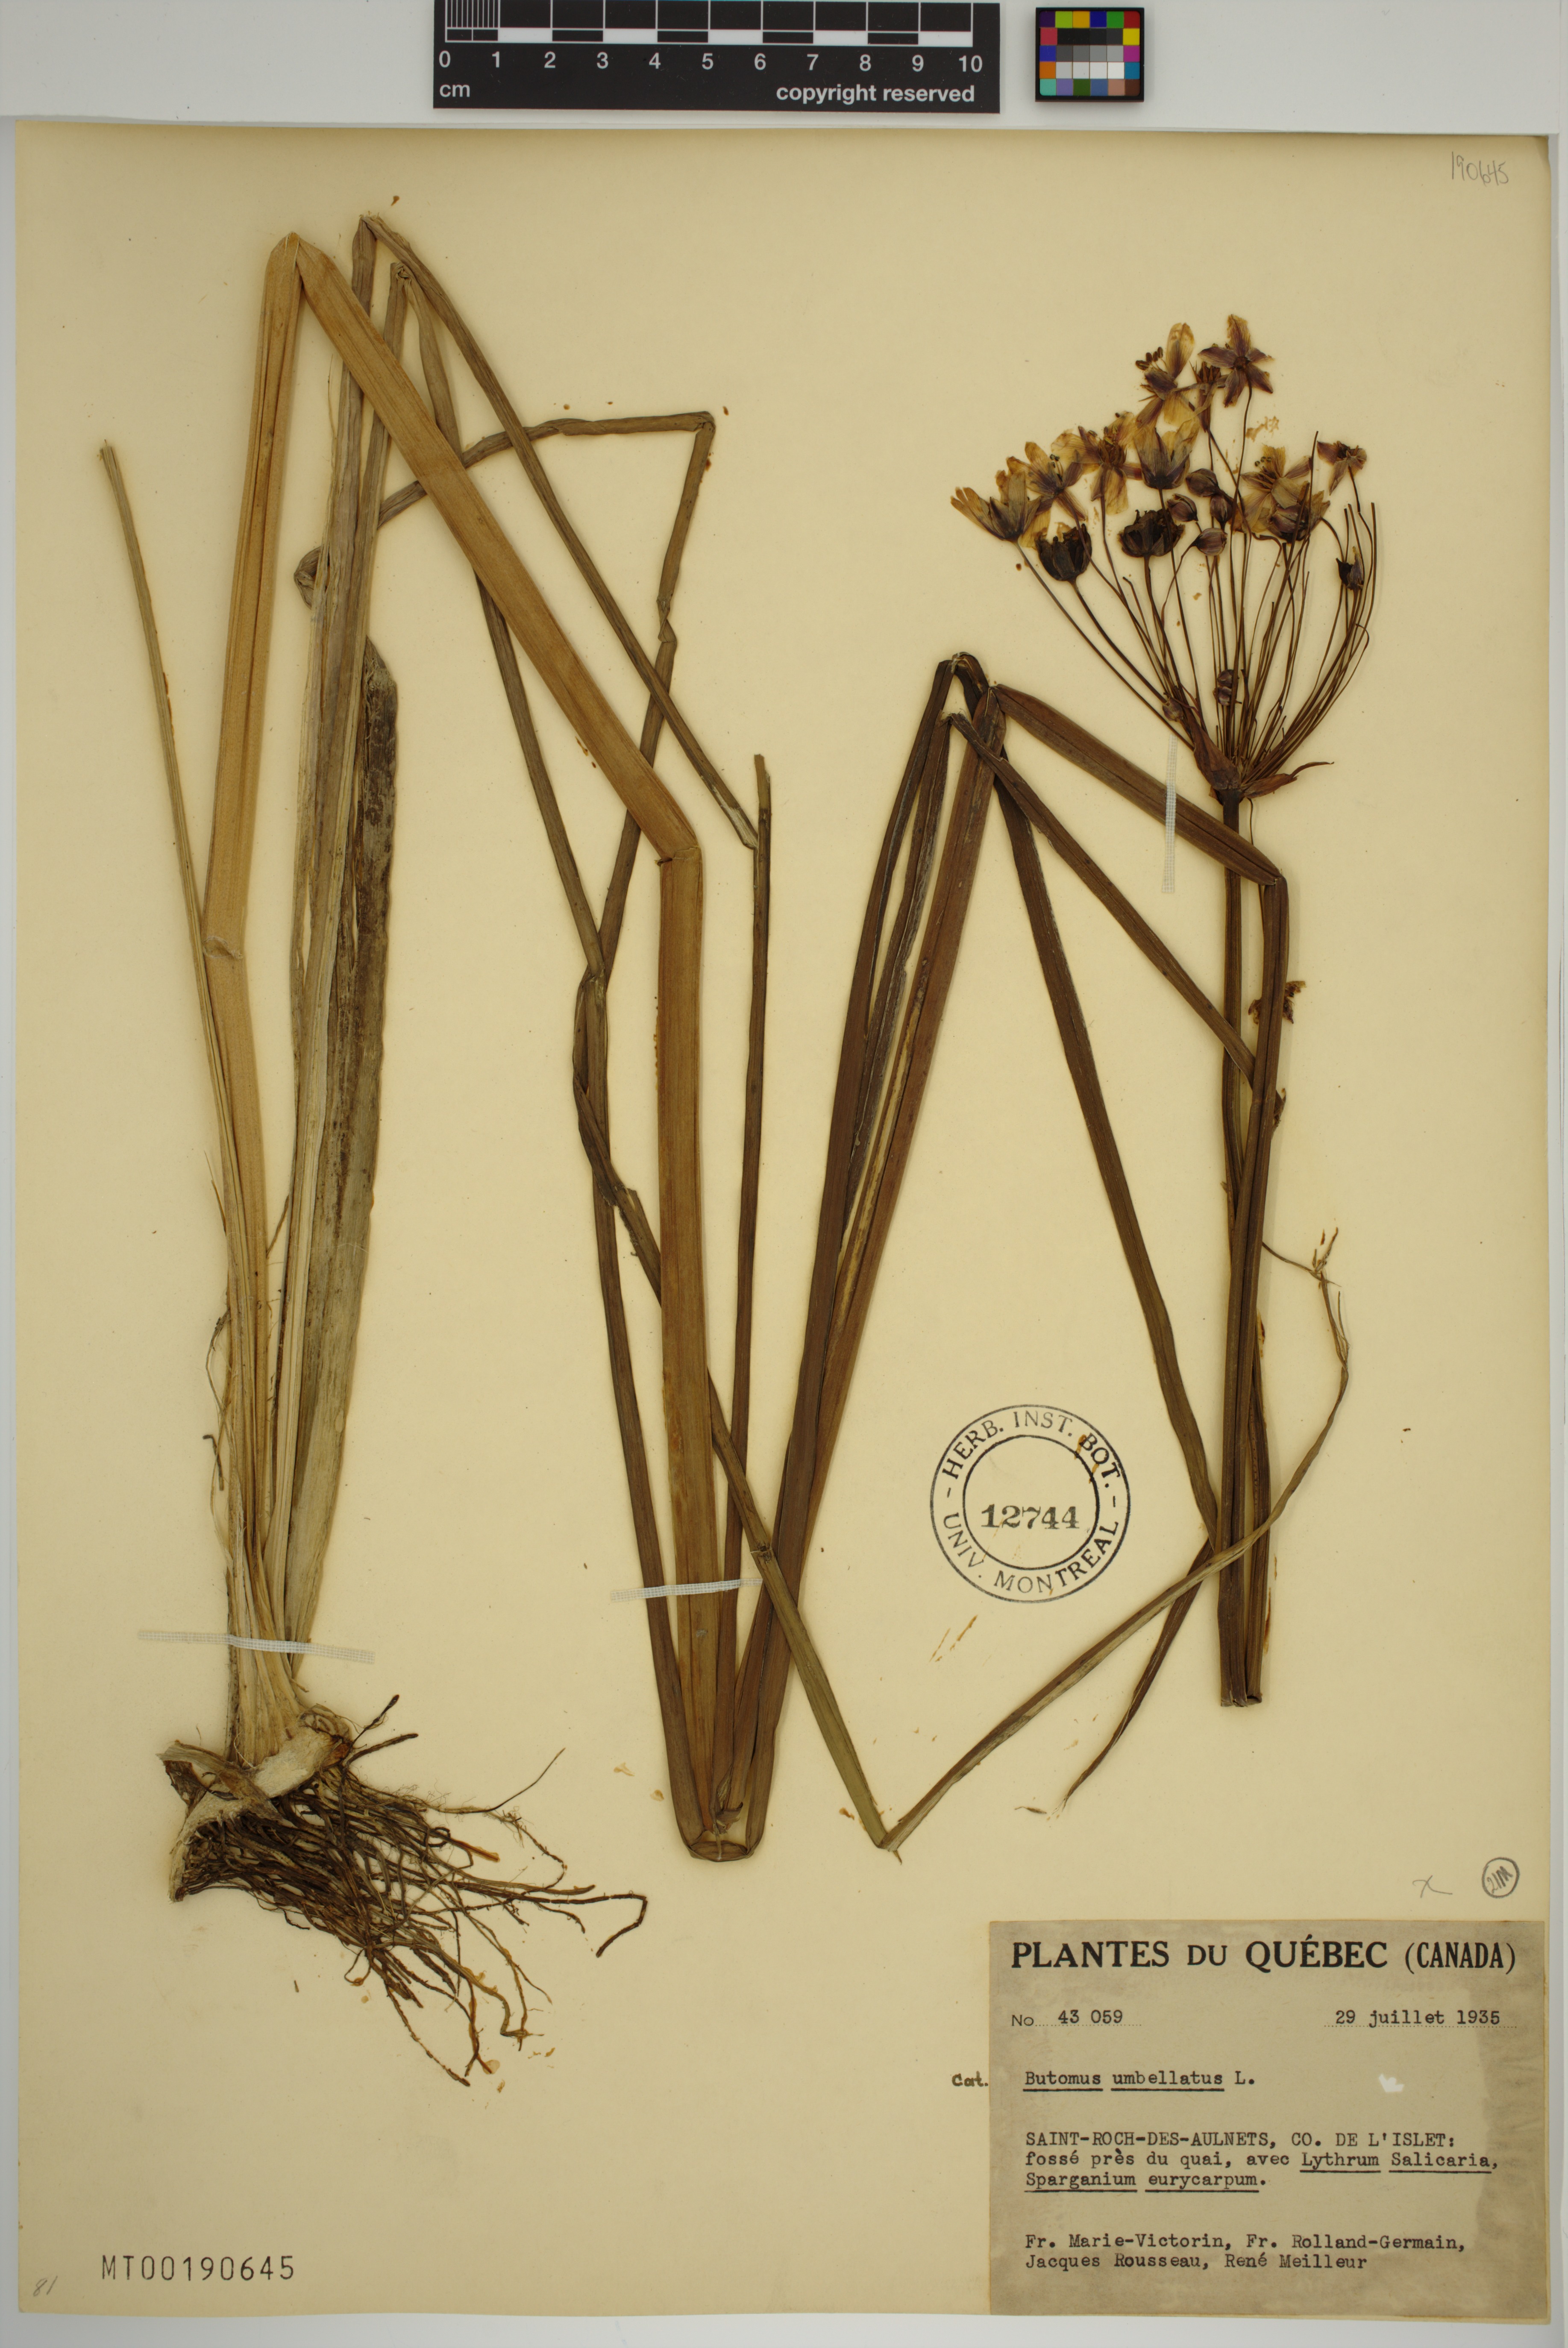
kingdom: Plantae
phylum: Tracheophyta
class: Liliopsida
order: Alismatales
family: Butomaceae
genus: Butomus
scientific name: Butomus umbellatus
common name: Flowering-rush
